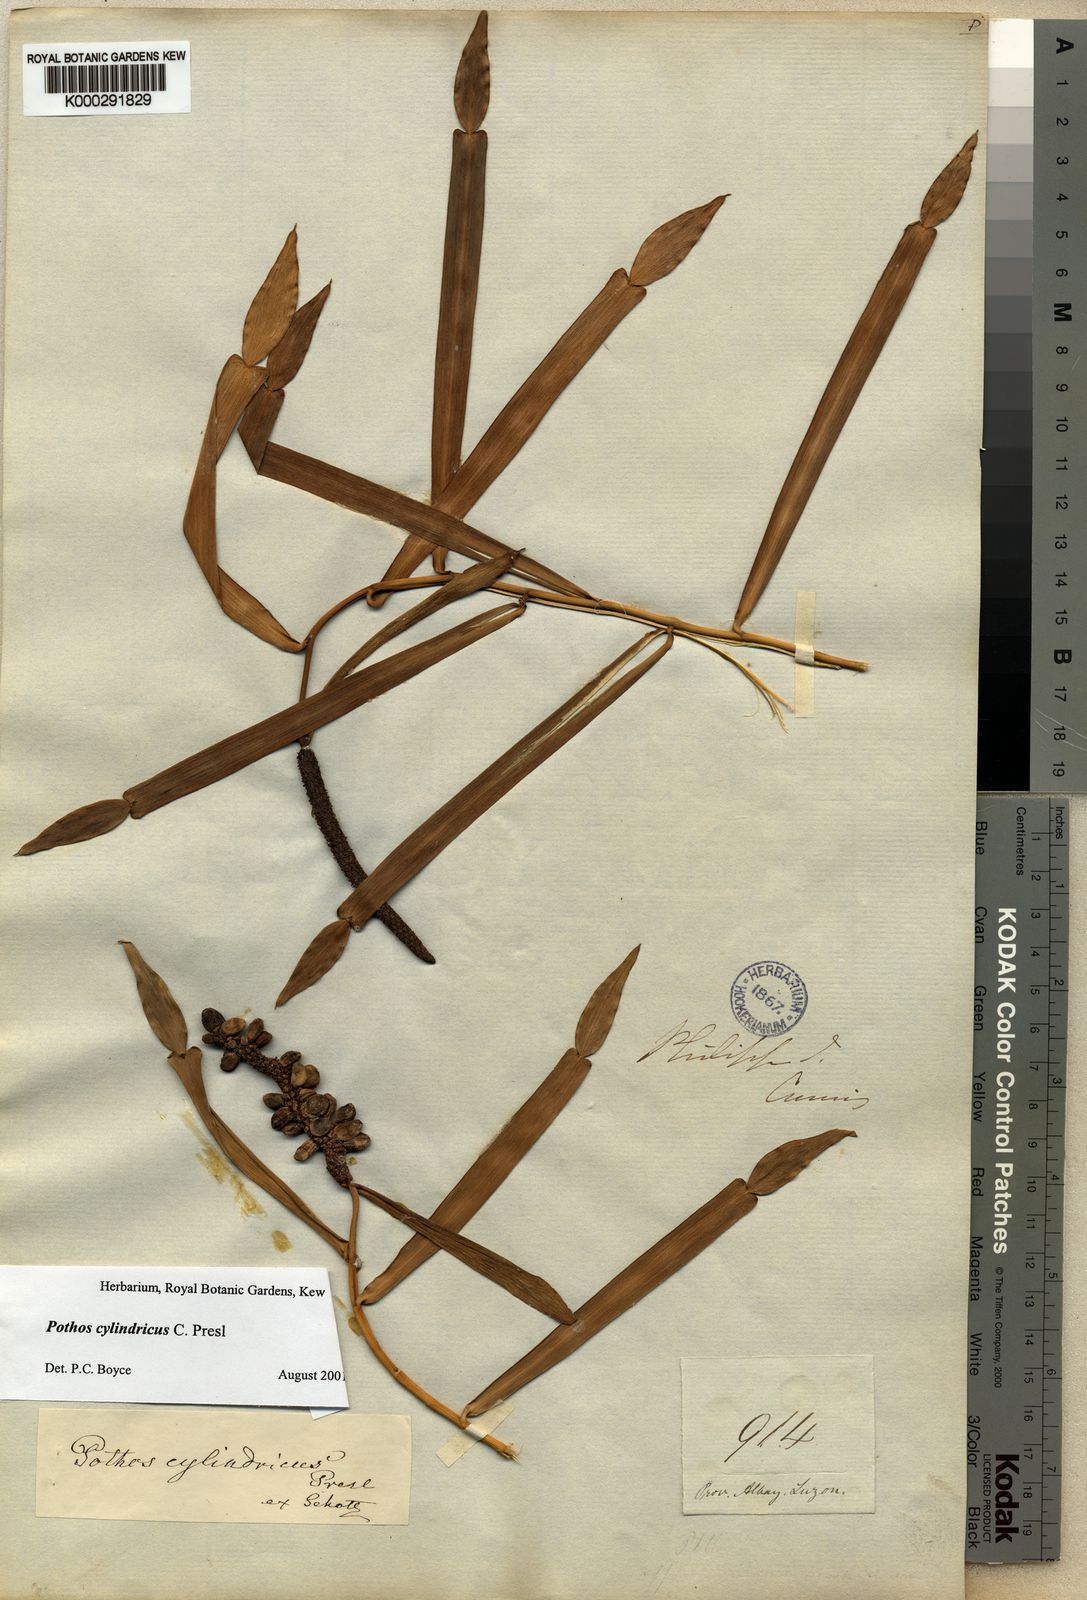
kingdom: Plantae
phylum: Tracheophyta
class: Liliopsida
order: Alismatales
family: Araceae
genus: Pothos
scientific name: Pothos cylindricus
